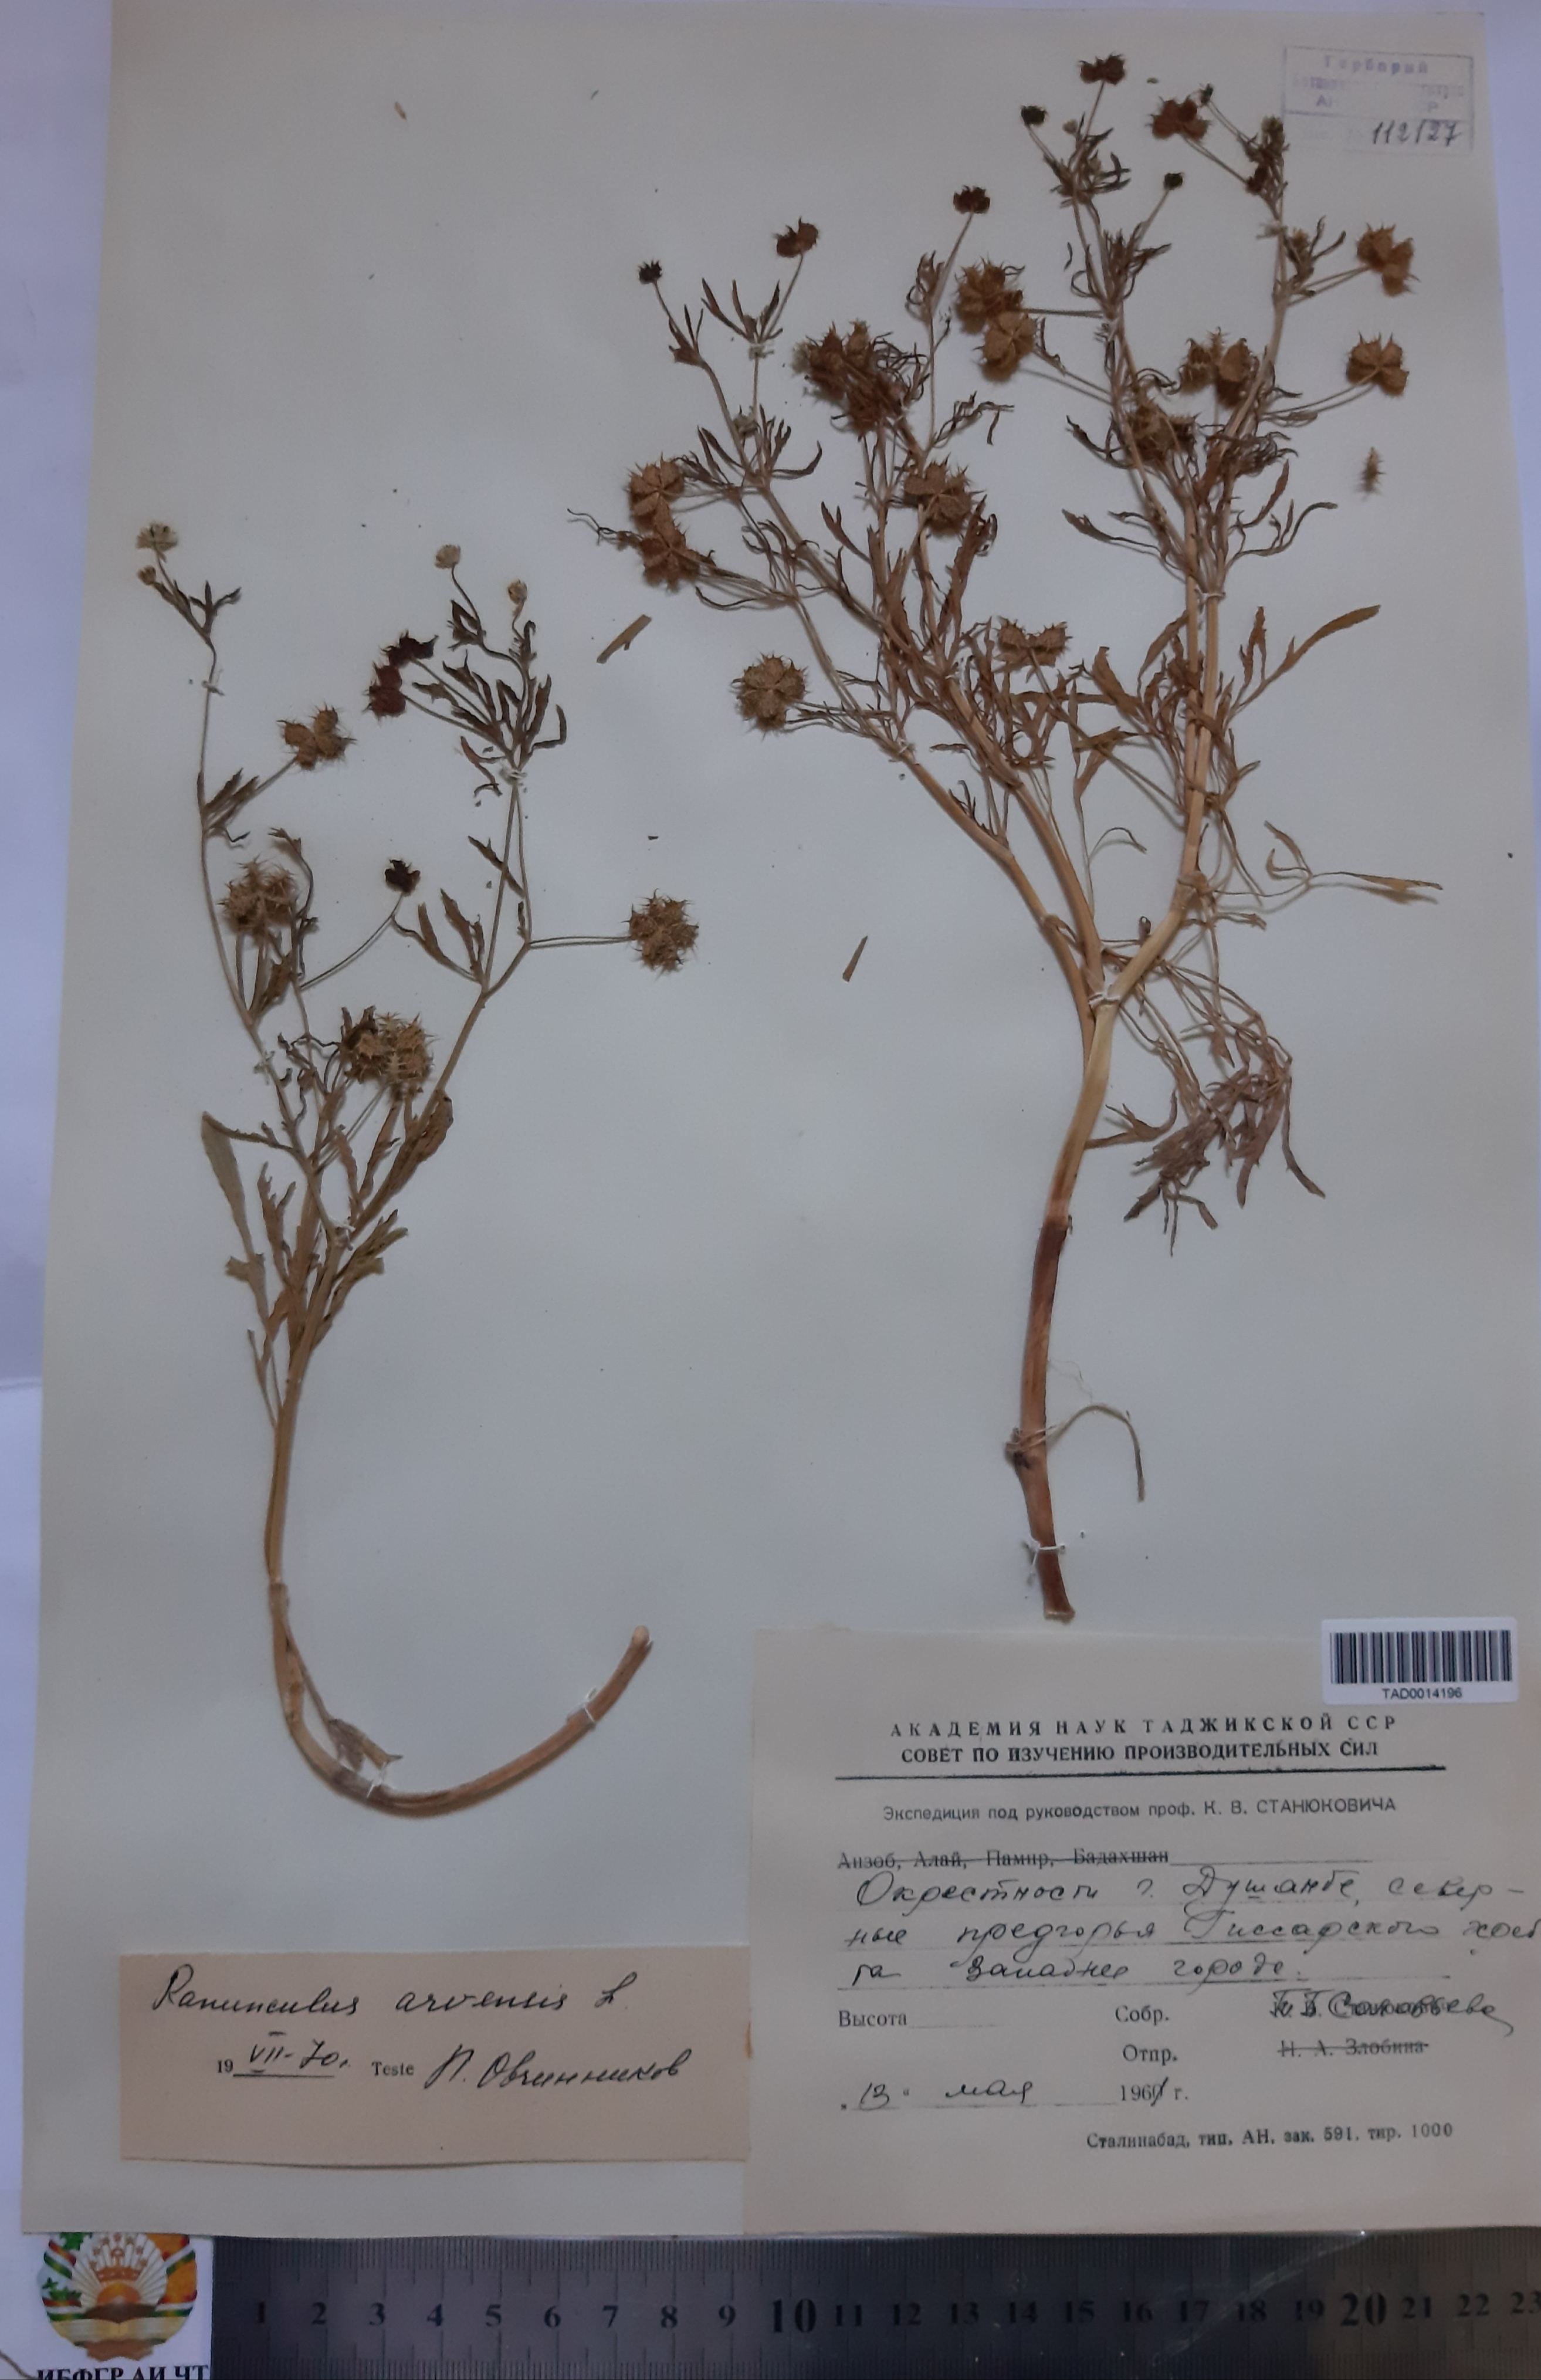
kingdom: Plantae
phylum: Tracheophyta
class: Magnoliopsida
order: Ranunculales
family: Ranunculaceae
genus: Ranunculus
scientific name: Ranunculus arvensis
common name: Corn buttercup
